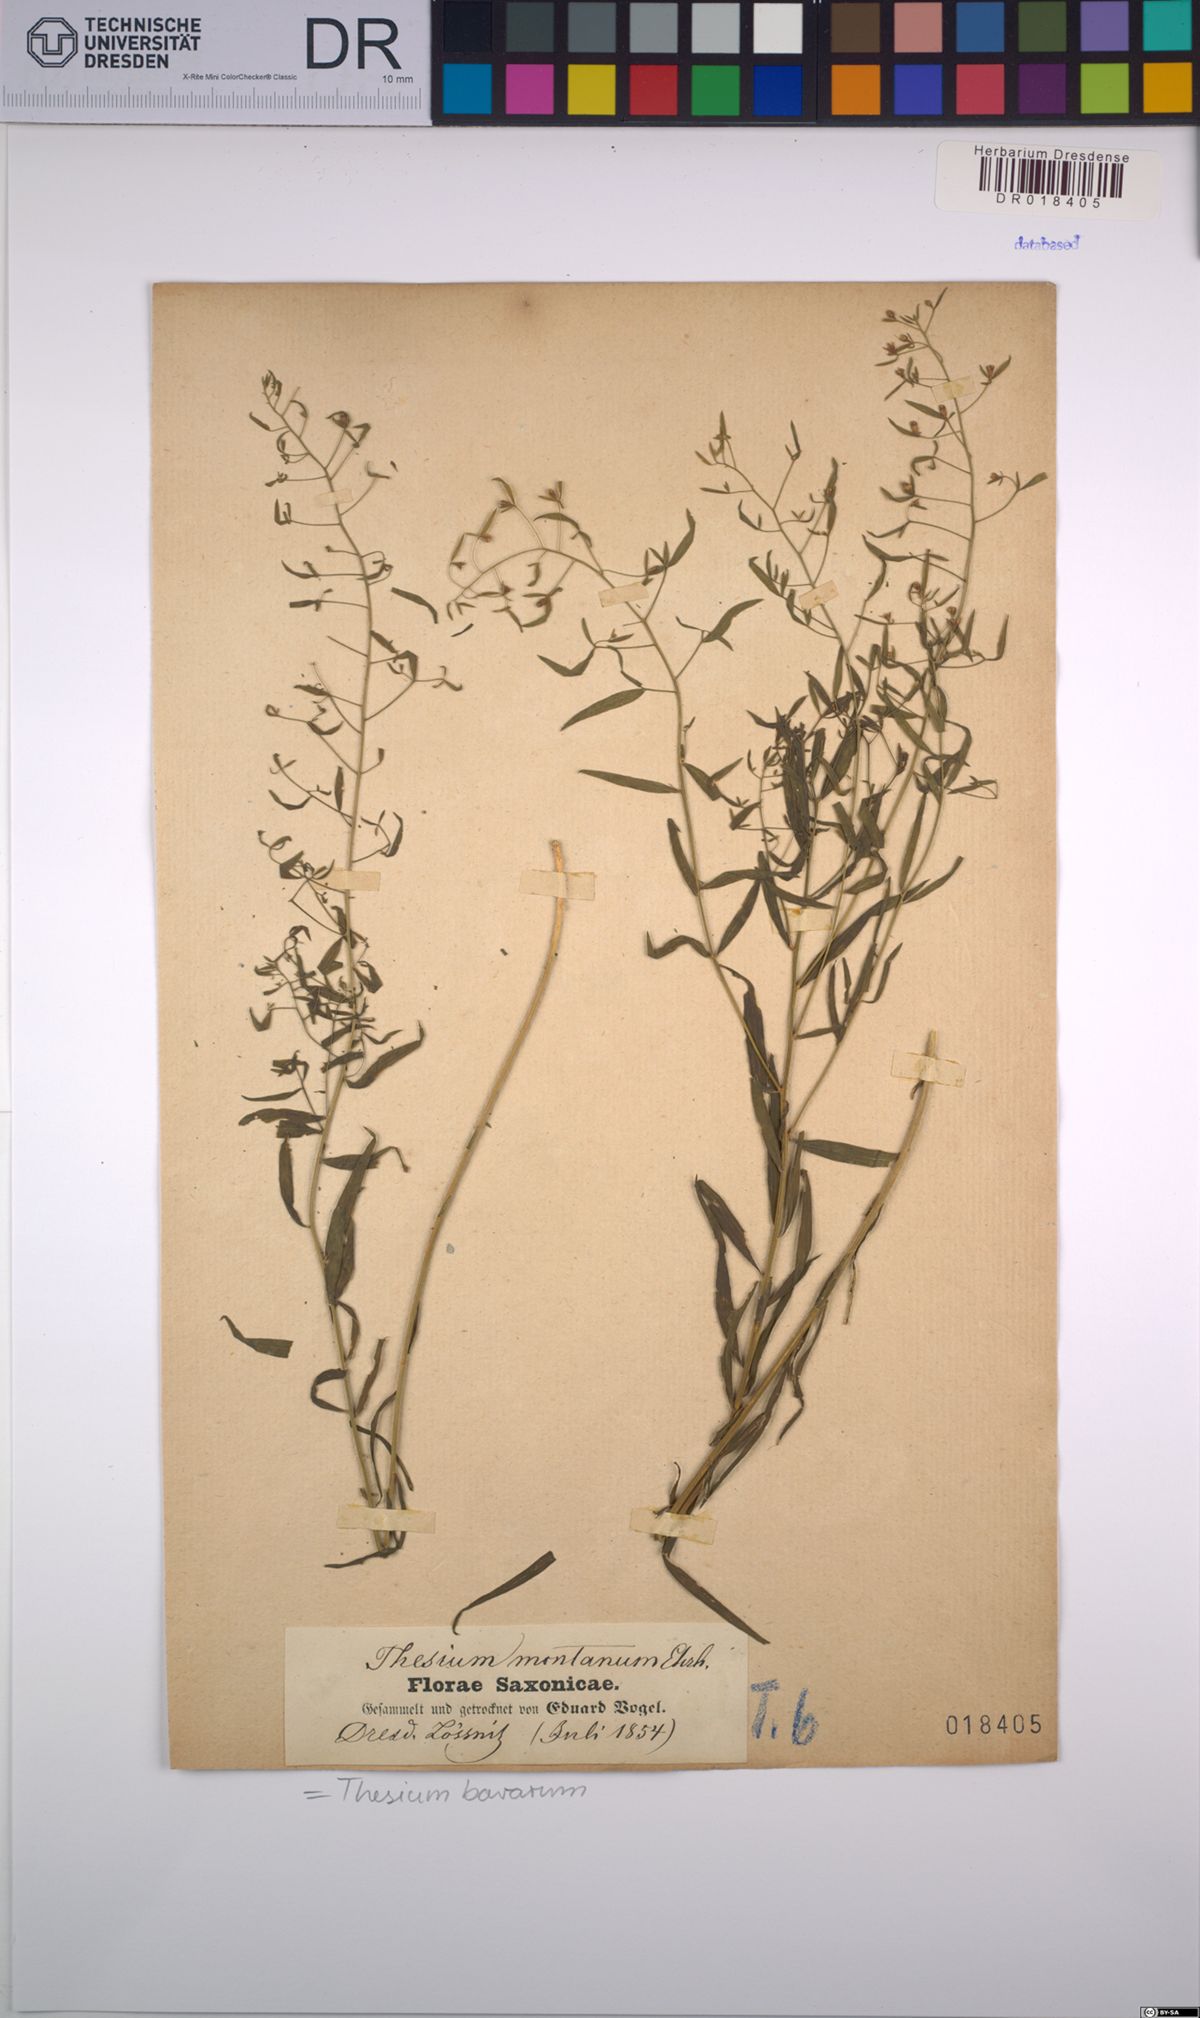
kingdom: Plantae
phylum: Tracheophyta
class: Magnoliopsida
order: Santalales
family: Thesiaceae
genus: Thesium
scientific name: Thesium bavarum
